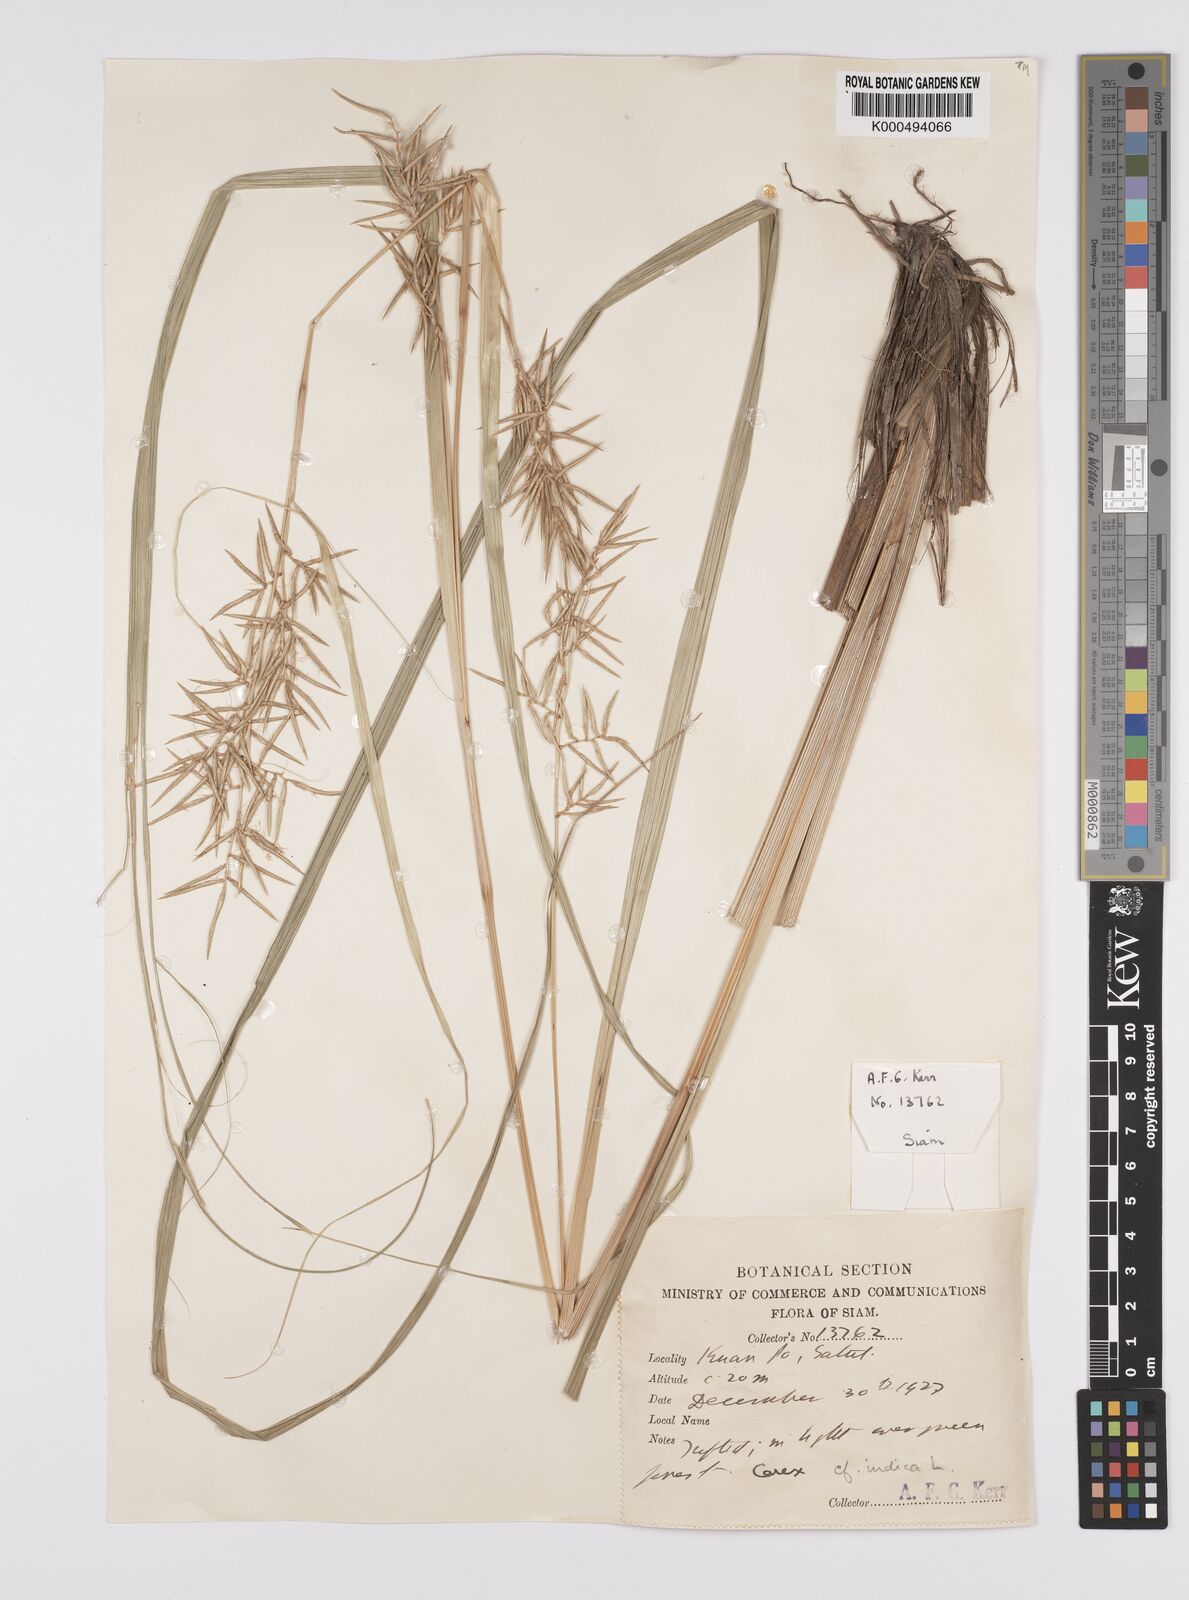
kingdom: Plantae
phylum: Tracheophyta
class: Liliopsida
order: Poales
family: Cyperaceae
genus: Carex
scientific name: Carex indica
